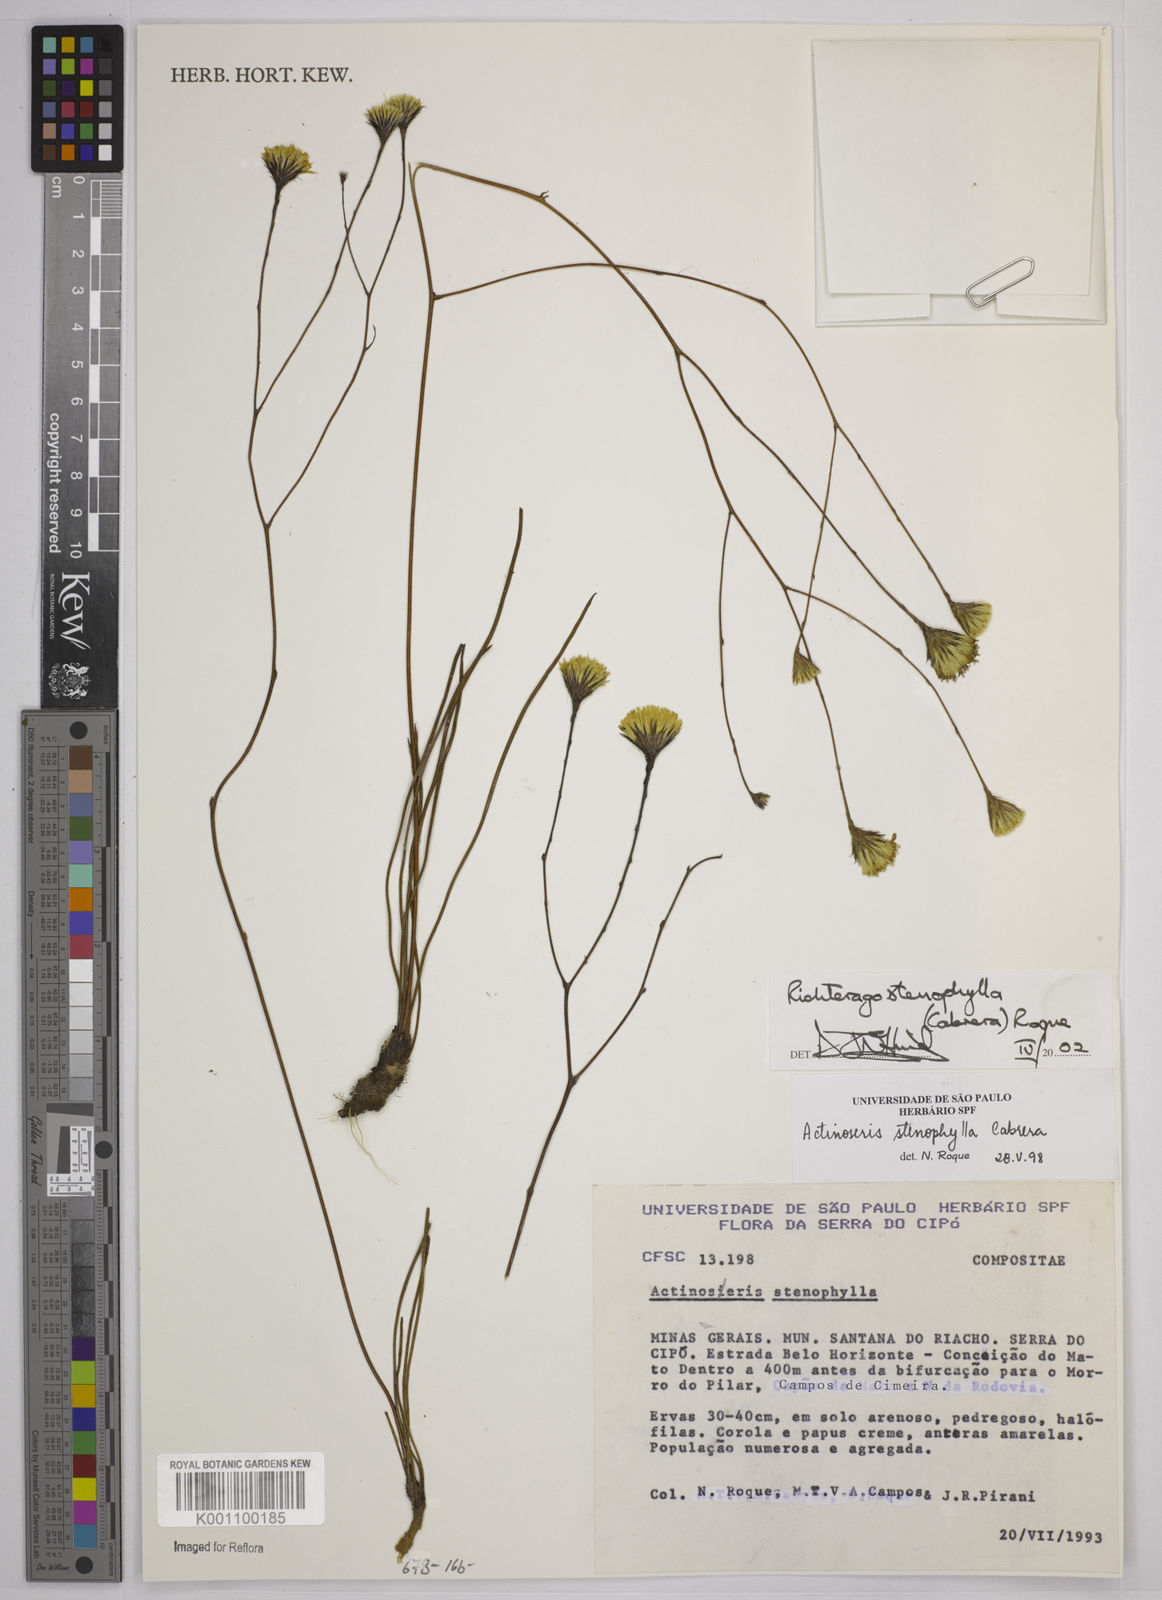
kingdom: Plantae
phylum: Tracheophyta
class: Magnoliopsida
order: Asterales
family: Asteraceae
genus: Richterago
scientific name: Richterago stenophylla
